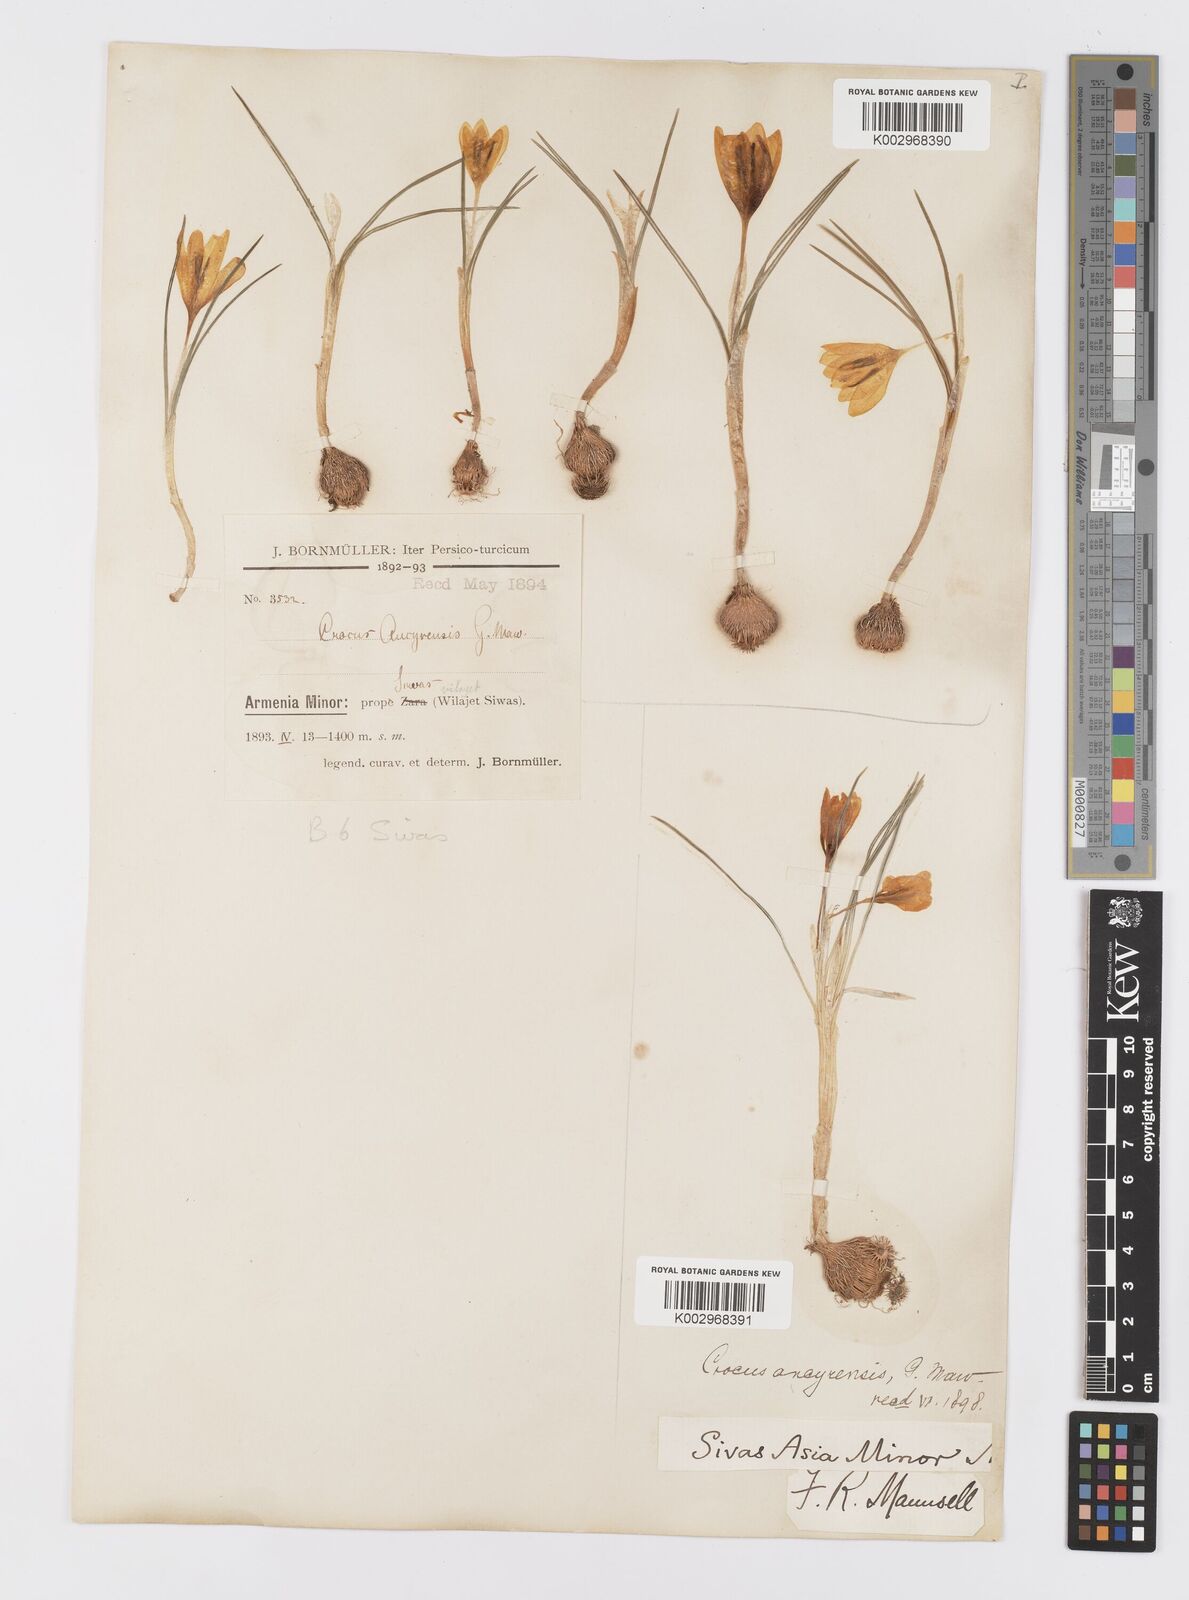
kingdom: Plantae
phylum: Tracheophyta
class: Liliopsida
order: Asparagales
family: Iridaceae
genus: Crocus
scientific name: Crocus ancyrensis
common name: Ankara crocus
